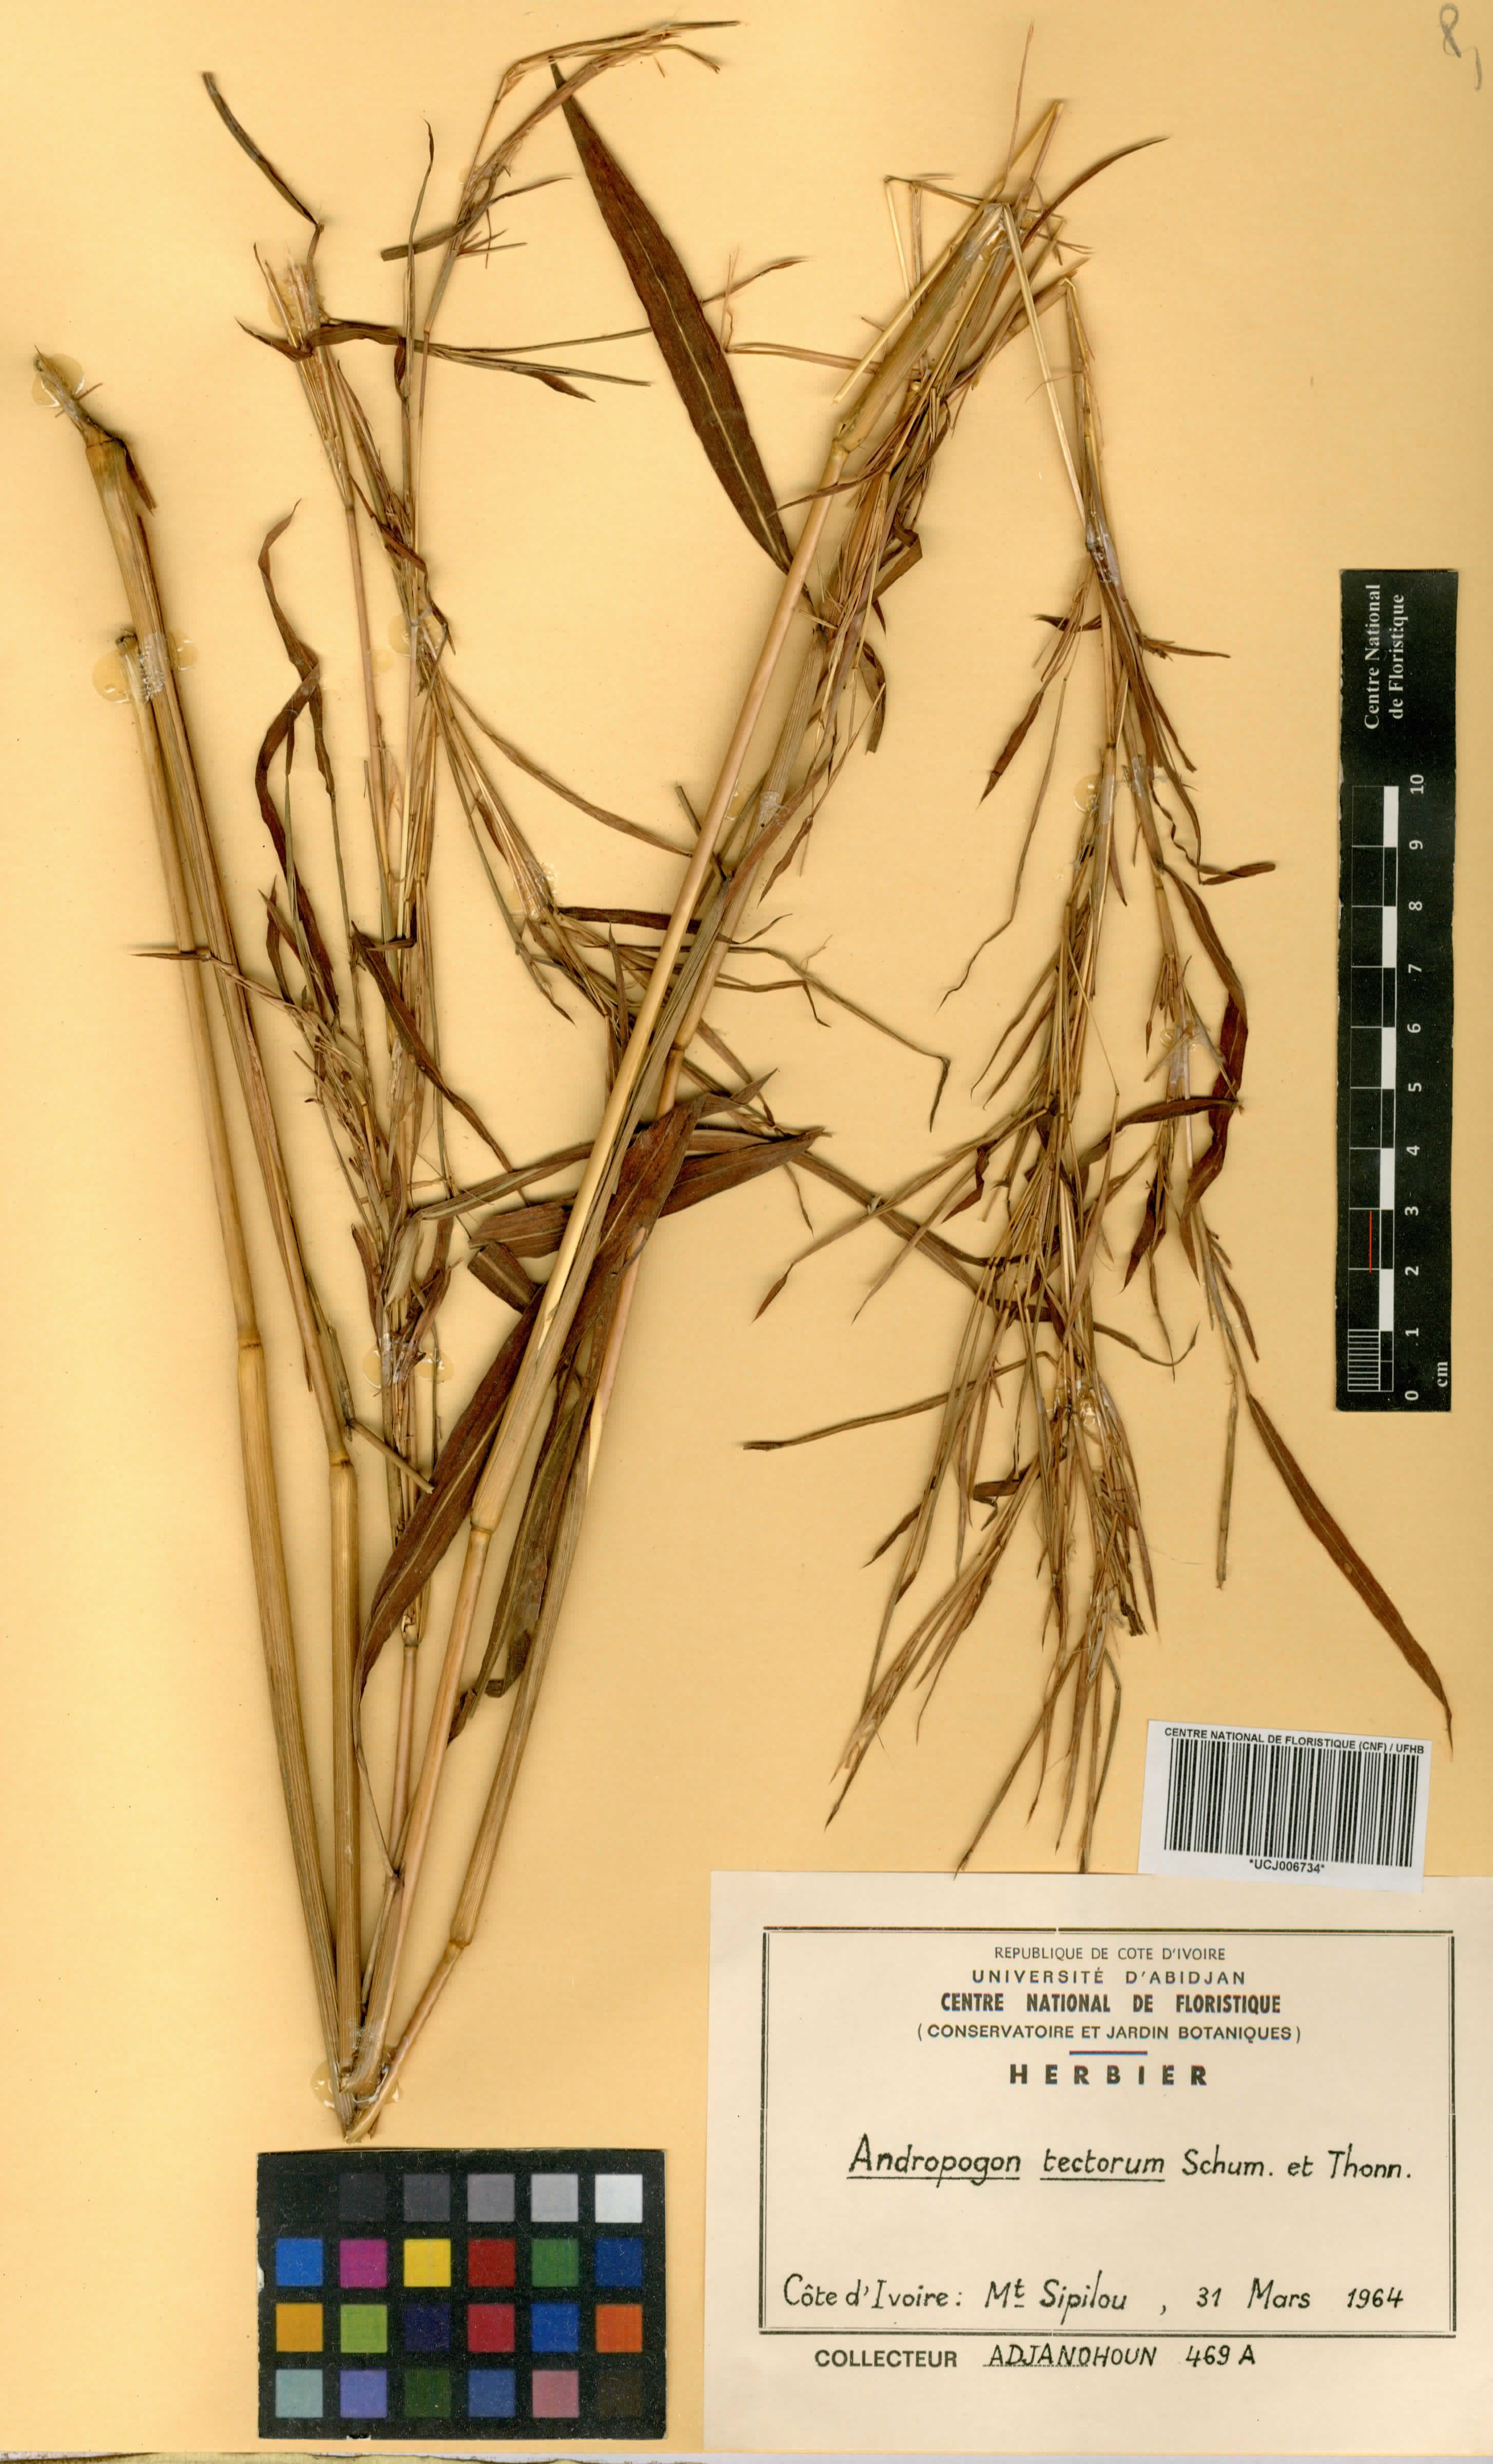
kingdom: Plantae
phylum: Tracheophyta
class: Liliopsida
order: Poales
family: Poaceae
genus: Andropogon
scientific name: Andropogon tectorum
